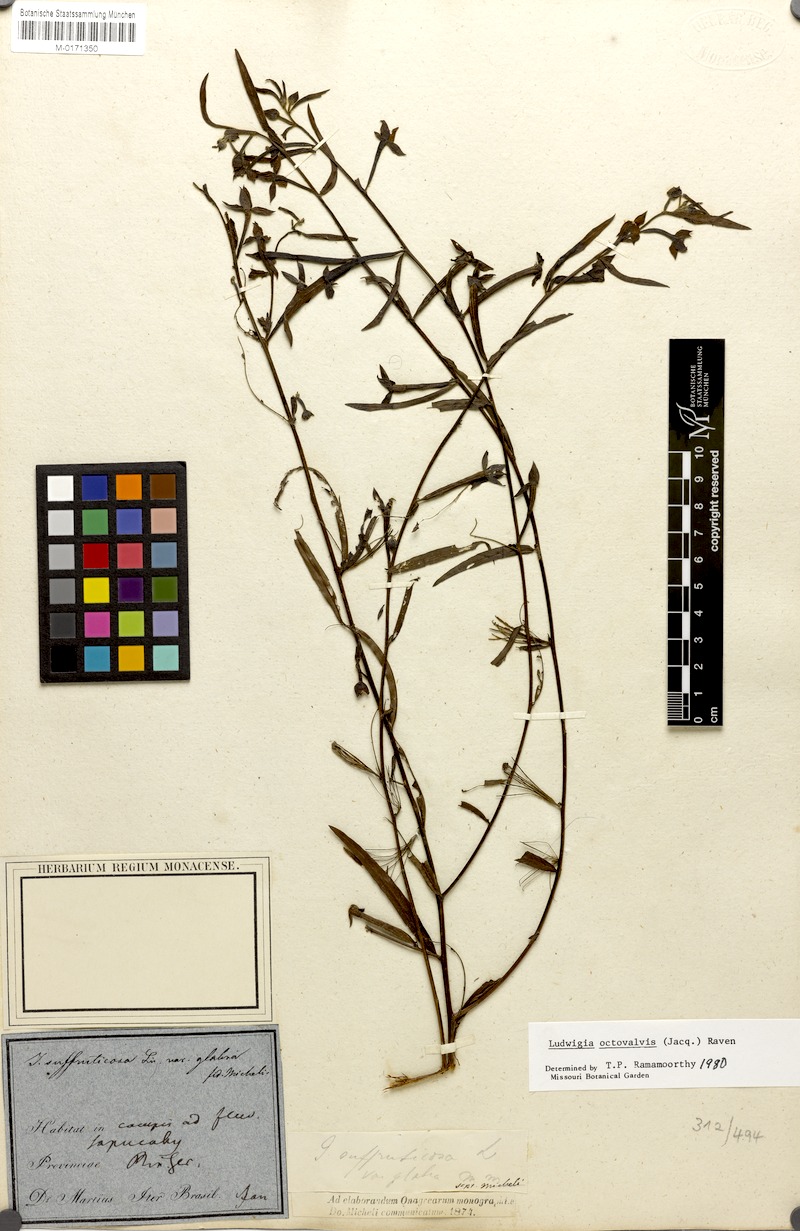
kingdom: Plantae
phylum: Tracheophyta
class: Magnoliopsida
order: Myrtales
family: Onagraceae
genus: Ludwigia
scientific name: Ludwigia octovalvis
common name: Water-primrose
